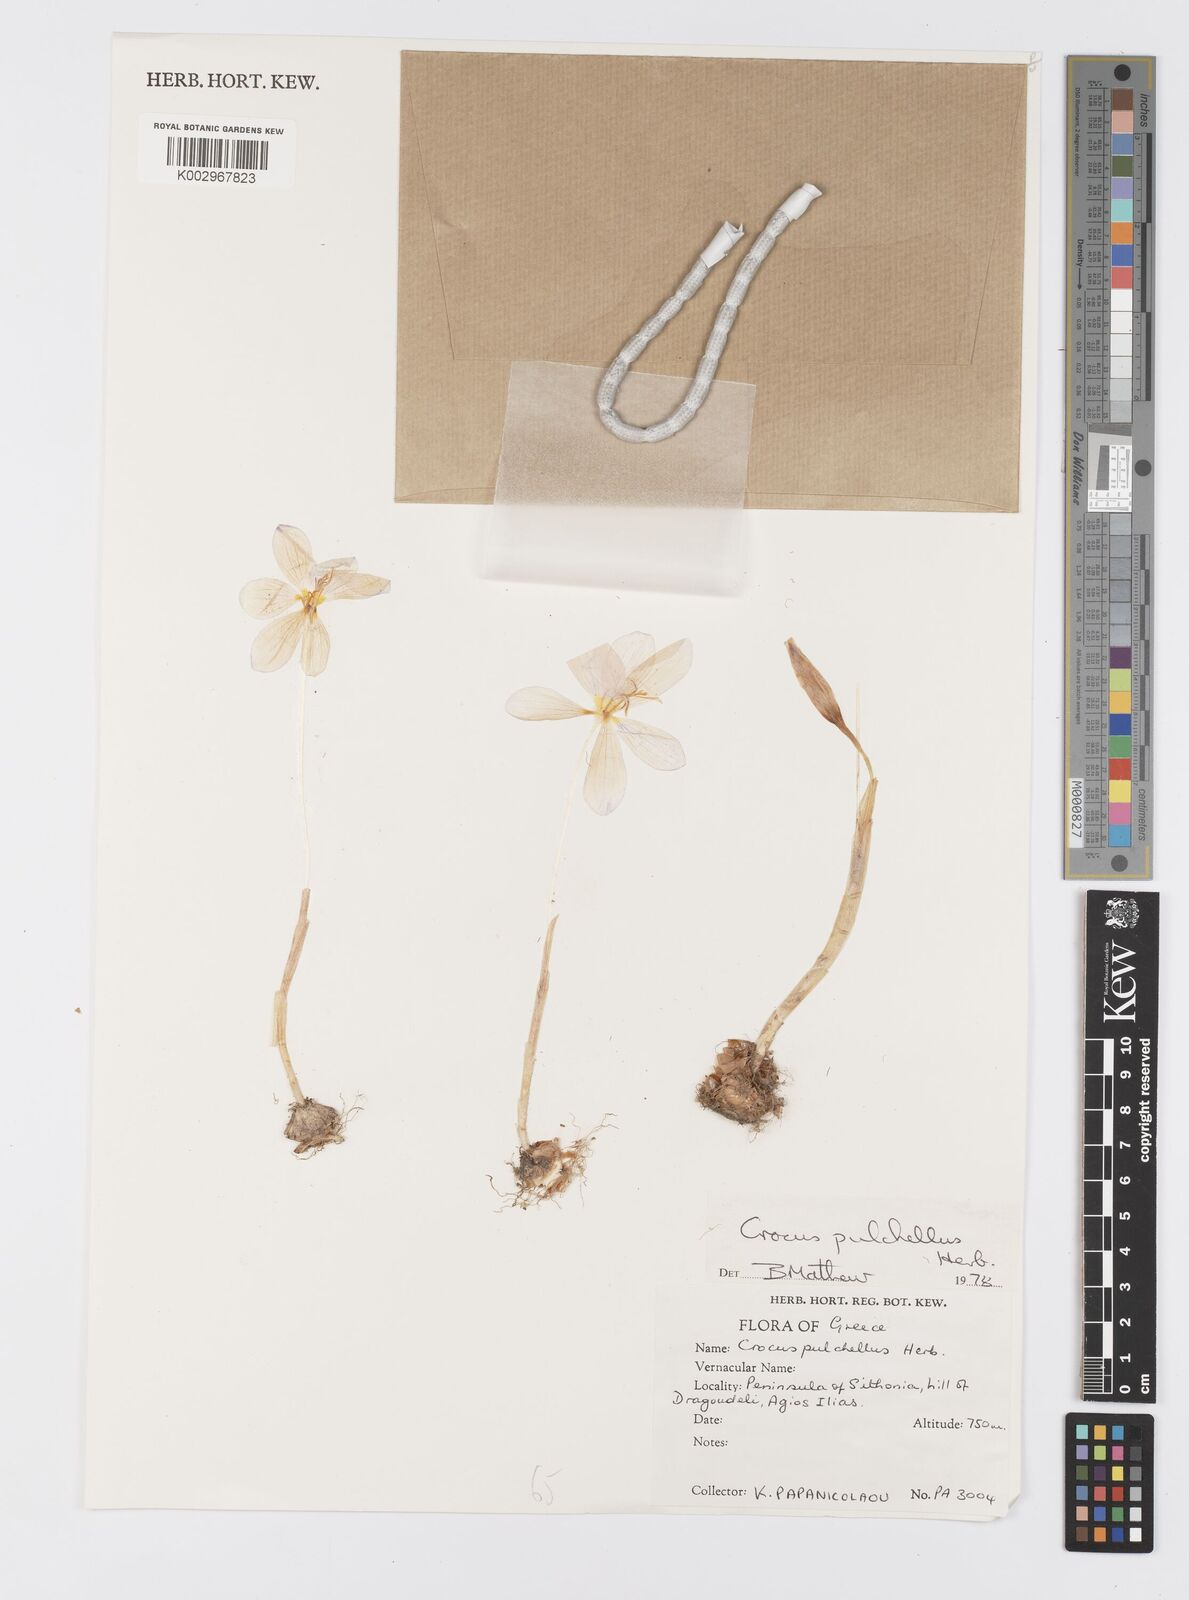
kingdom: Plantae
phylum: Tracheophyta
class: Liliopsida
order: Asparagales
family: Iridaceae
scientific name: Iridaceae
